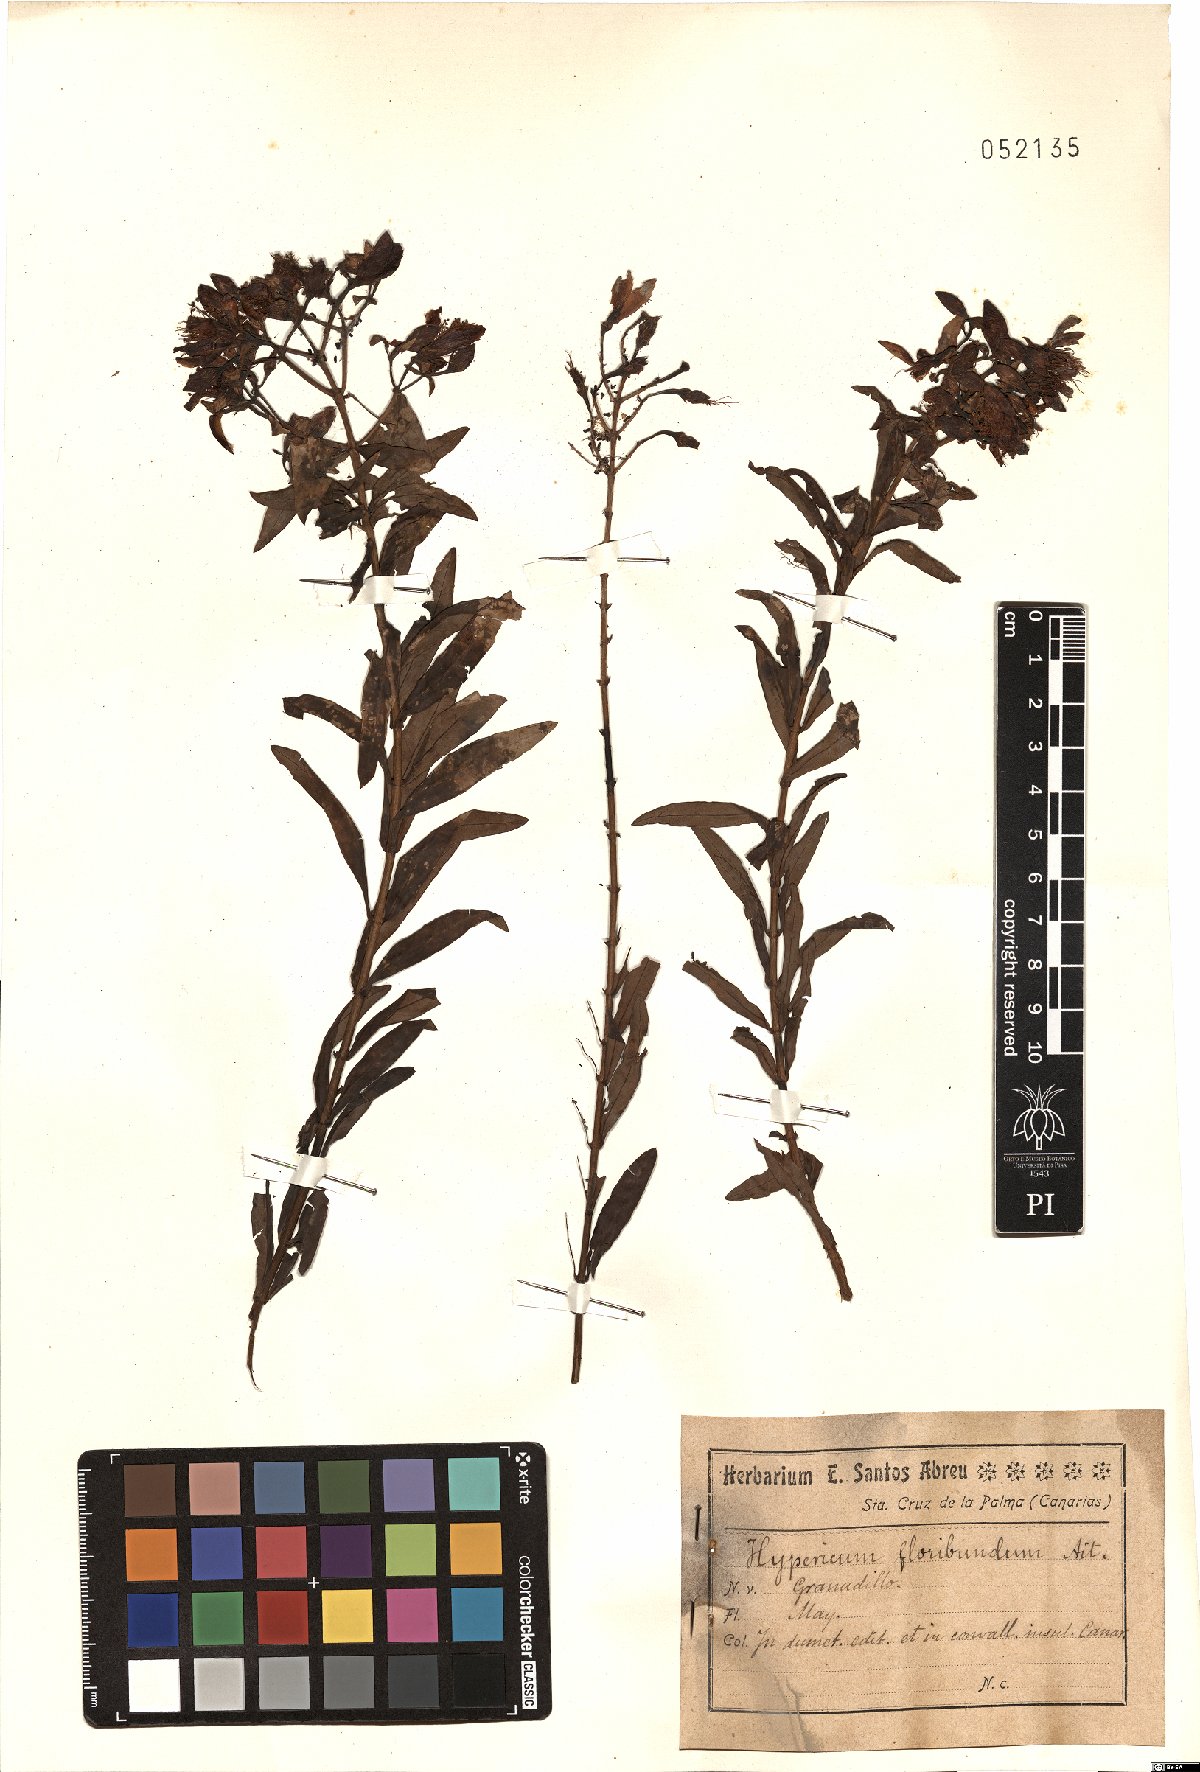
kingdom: Plantae
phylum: Tracheophyta
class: Magnoliopsida
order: Malpighiales
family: Hypericaceae
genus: Hypericum
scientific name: Hypericum canariense
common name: Canary island st. johnswort
